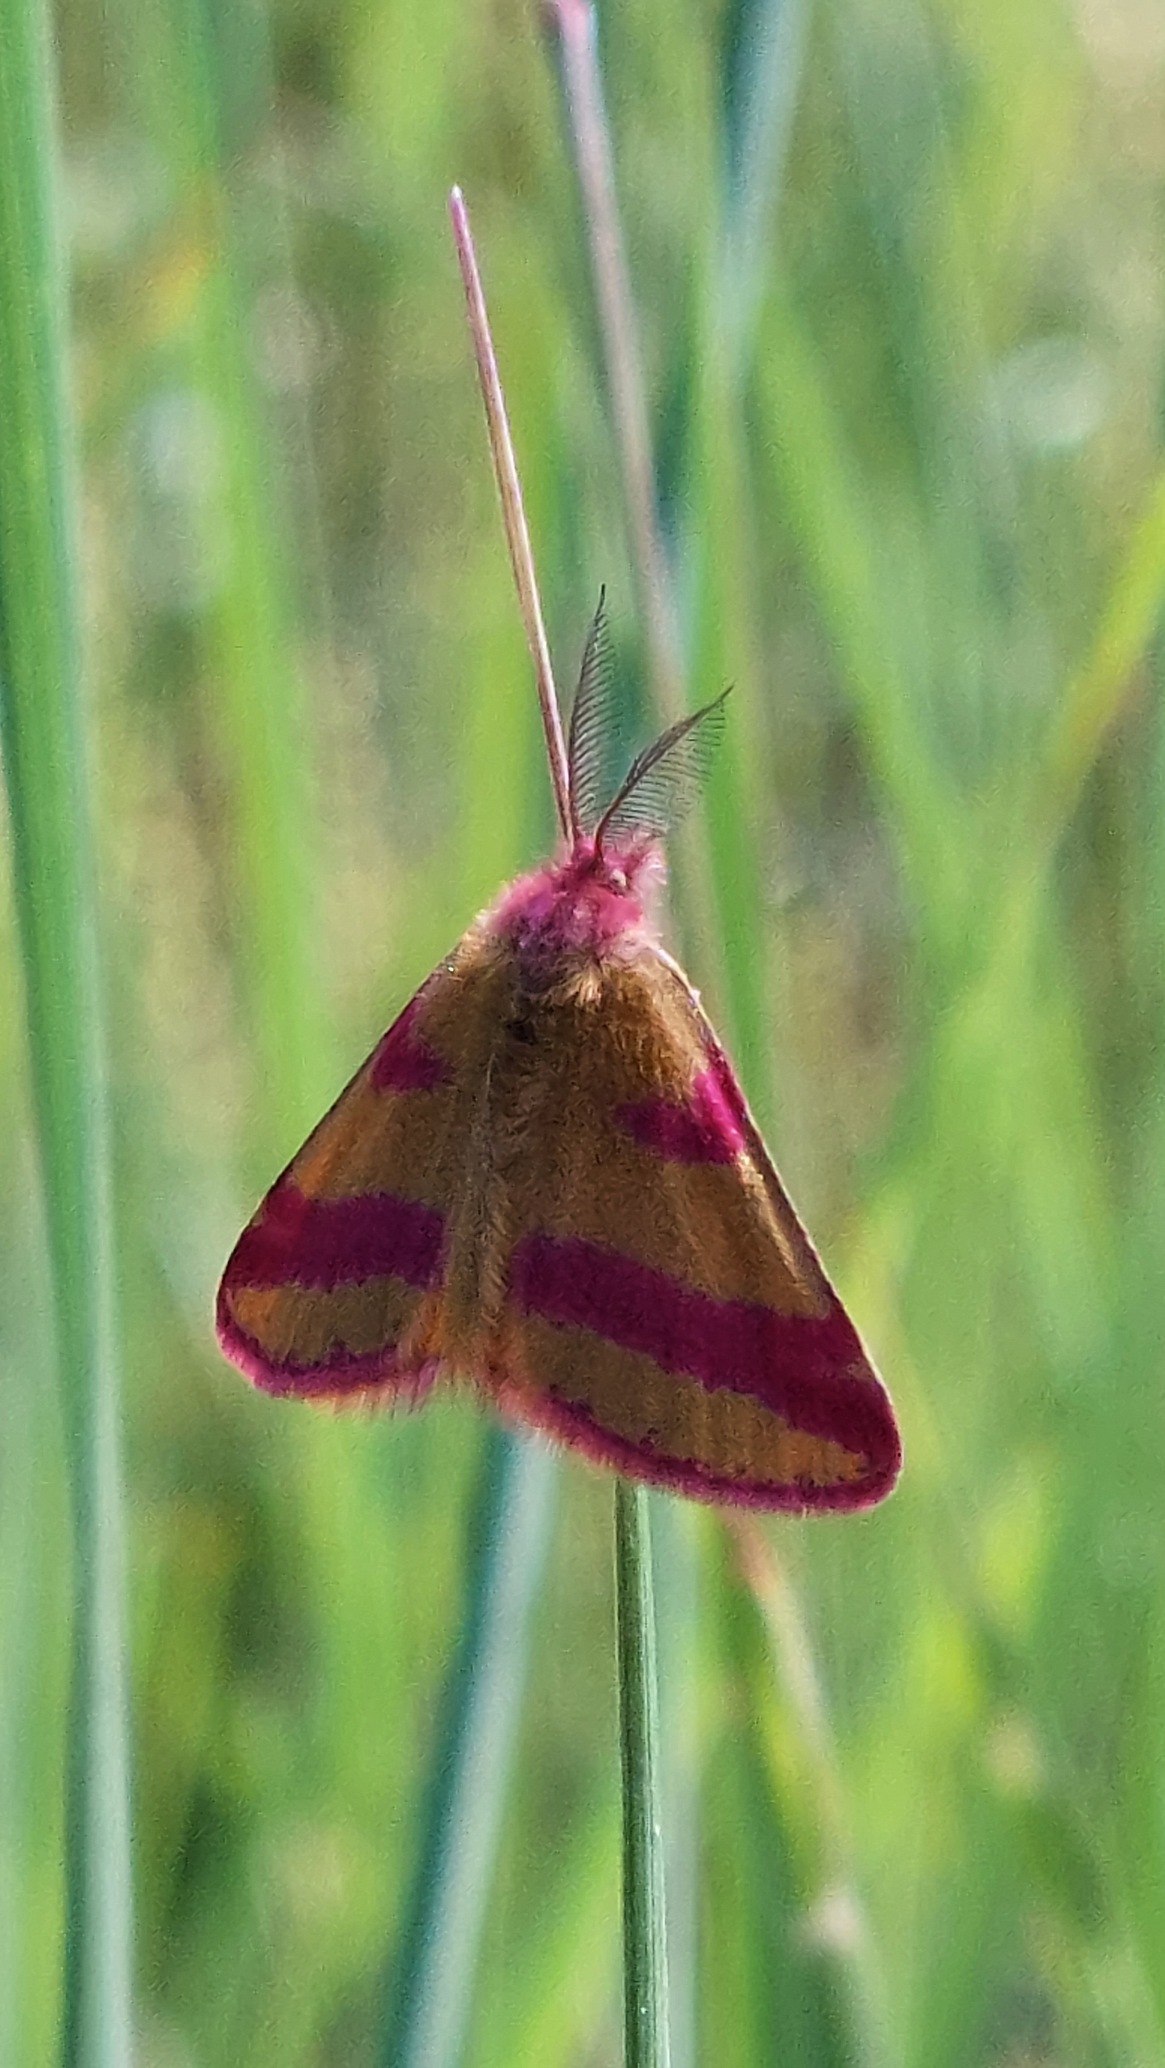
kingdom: Animalia
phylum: Arthropoda
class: Insecta
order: Lepidoptera
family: Geometridae
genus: Lythria
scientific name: Lythria cruentaria
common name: Purpurmåler
